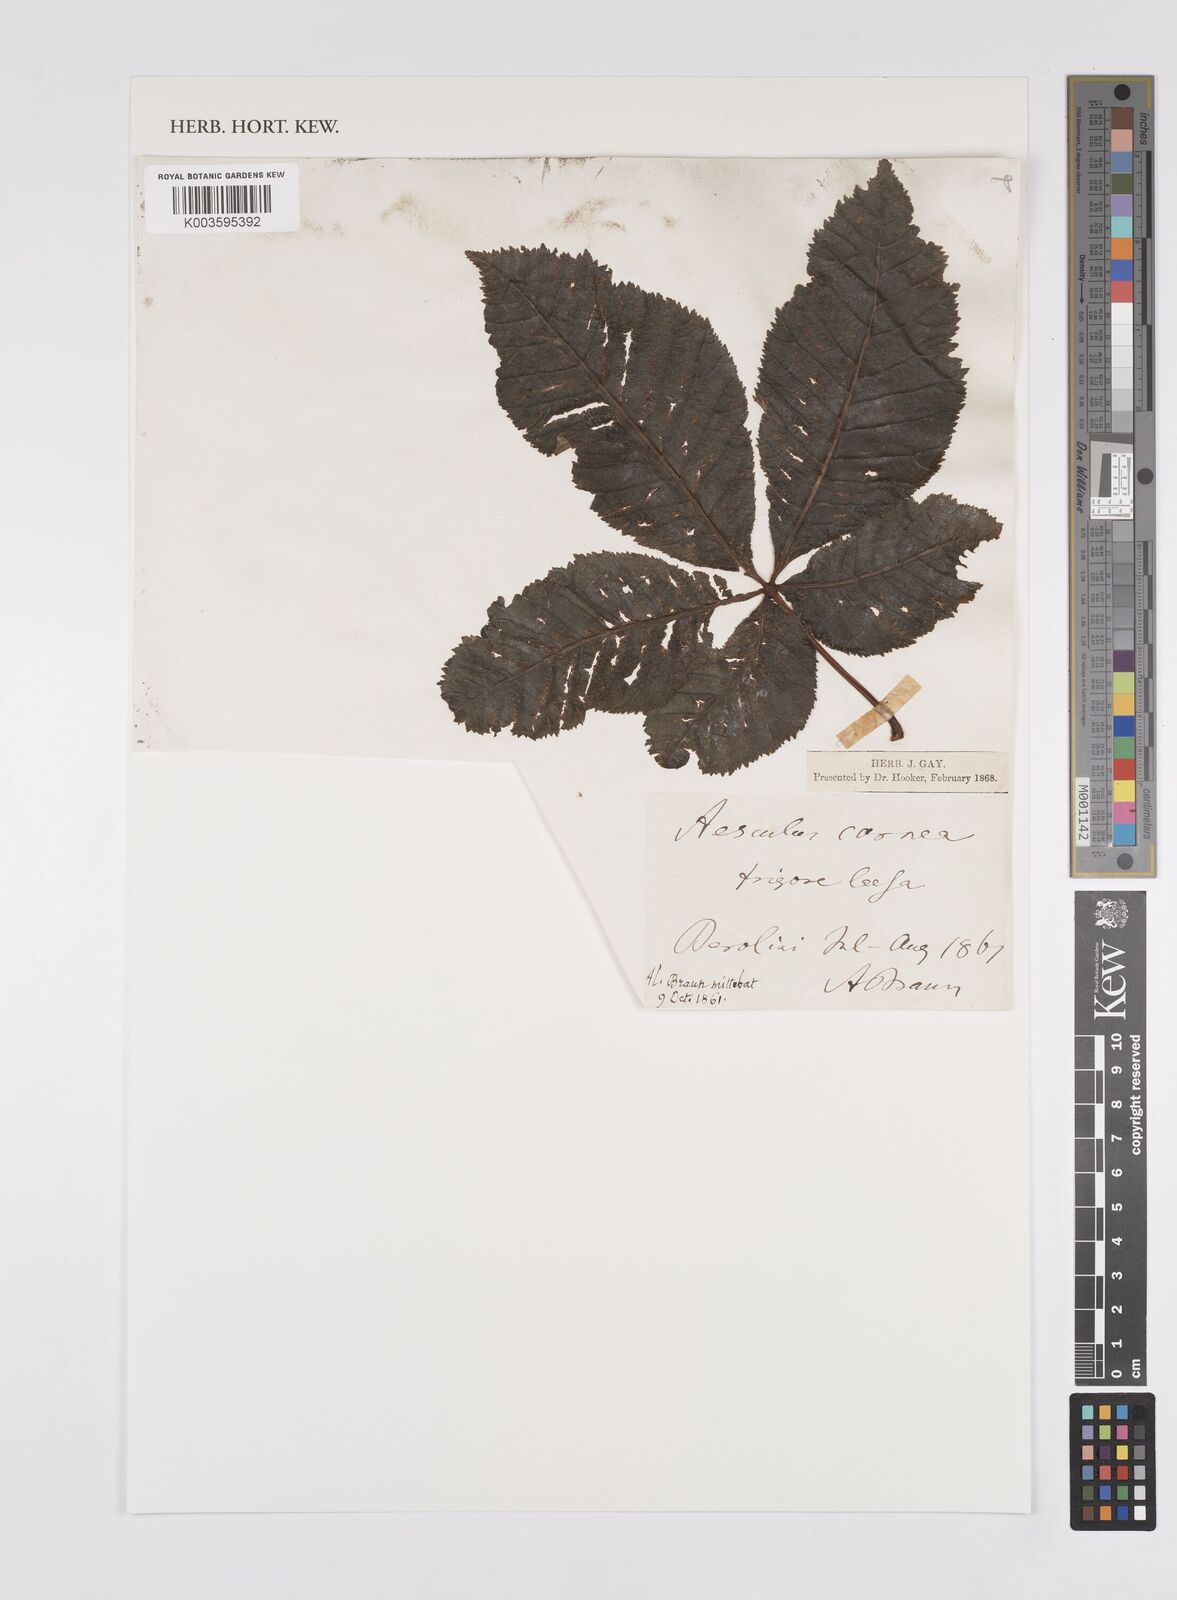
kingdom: Plantae
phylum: Tracheophyta
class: Magnoliopsida
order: Sapindales
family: Sapindaceae
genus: Aesculus
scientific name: Aesculus carnea
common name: Red horse-chestnut
